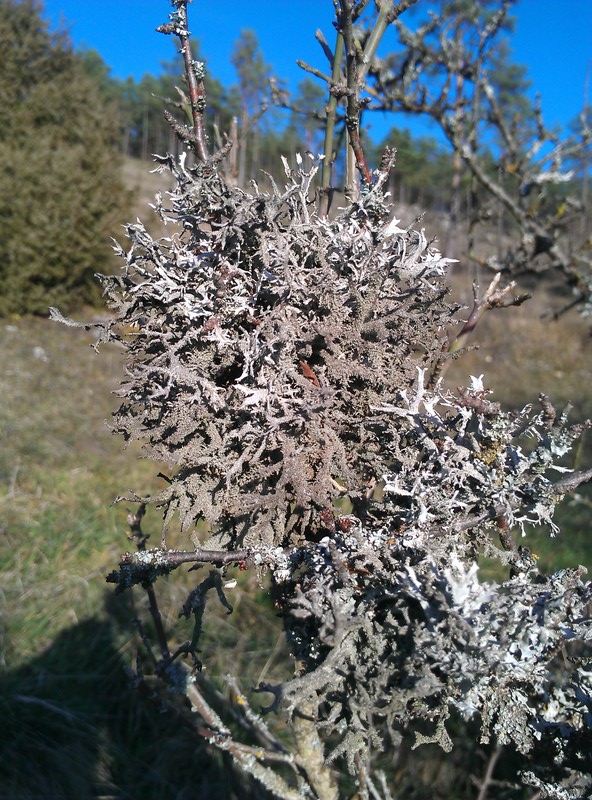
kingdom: Fungi
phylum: Ascomycota
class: Lecanoromycetes
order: Lecanorales
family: Parmeliaceae
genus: Pseudevernia
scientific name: Pseudevernia furfuracea
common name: Tree moss
